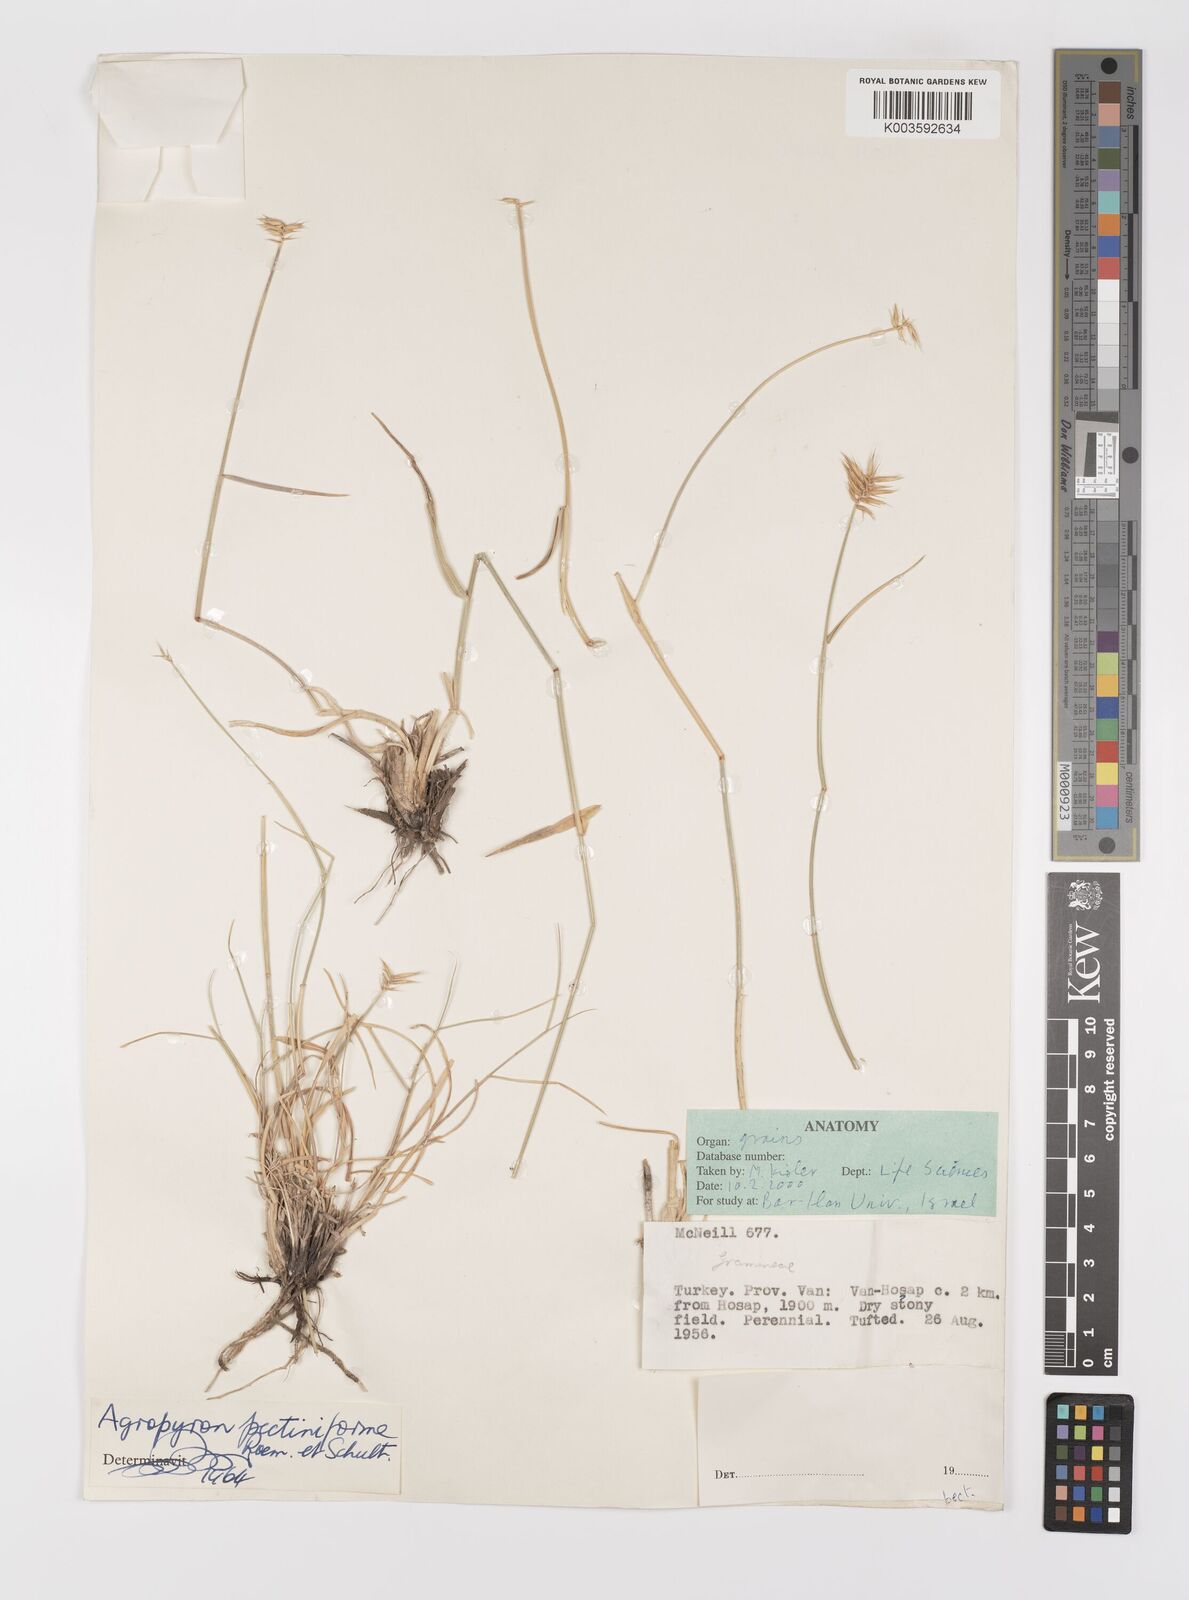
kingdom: Plantae
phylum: Tracheophyta
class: Liliopsida
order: Poales
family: Poaceae
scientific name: Poaceae
